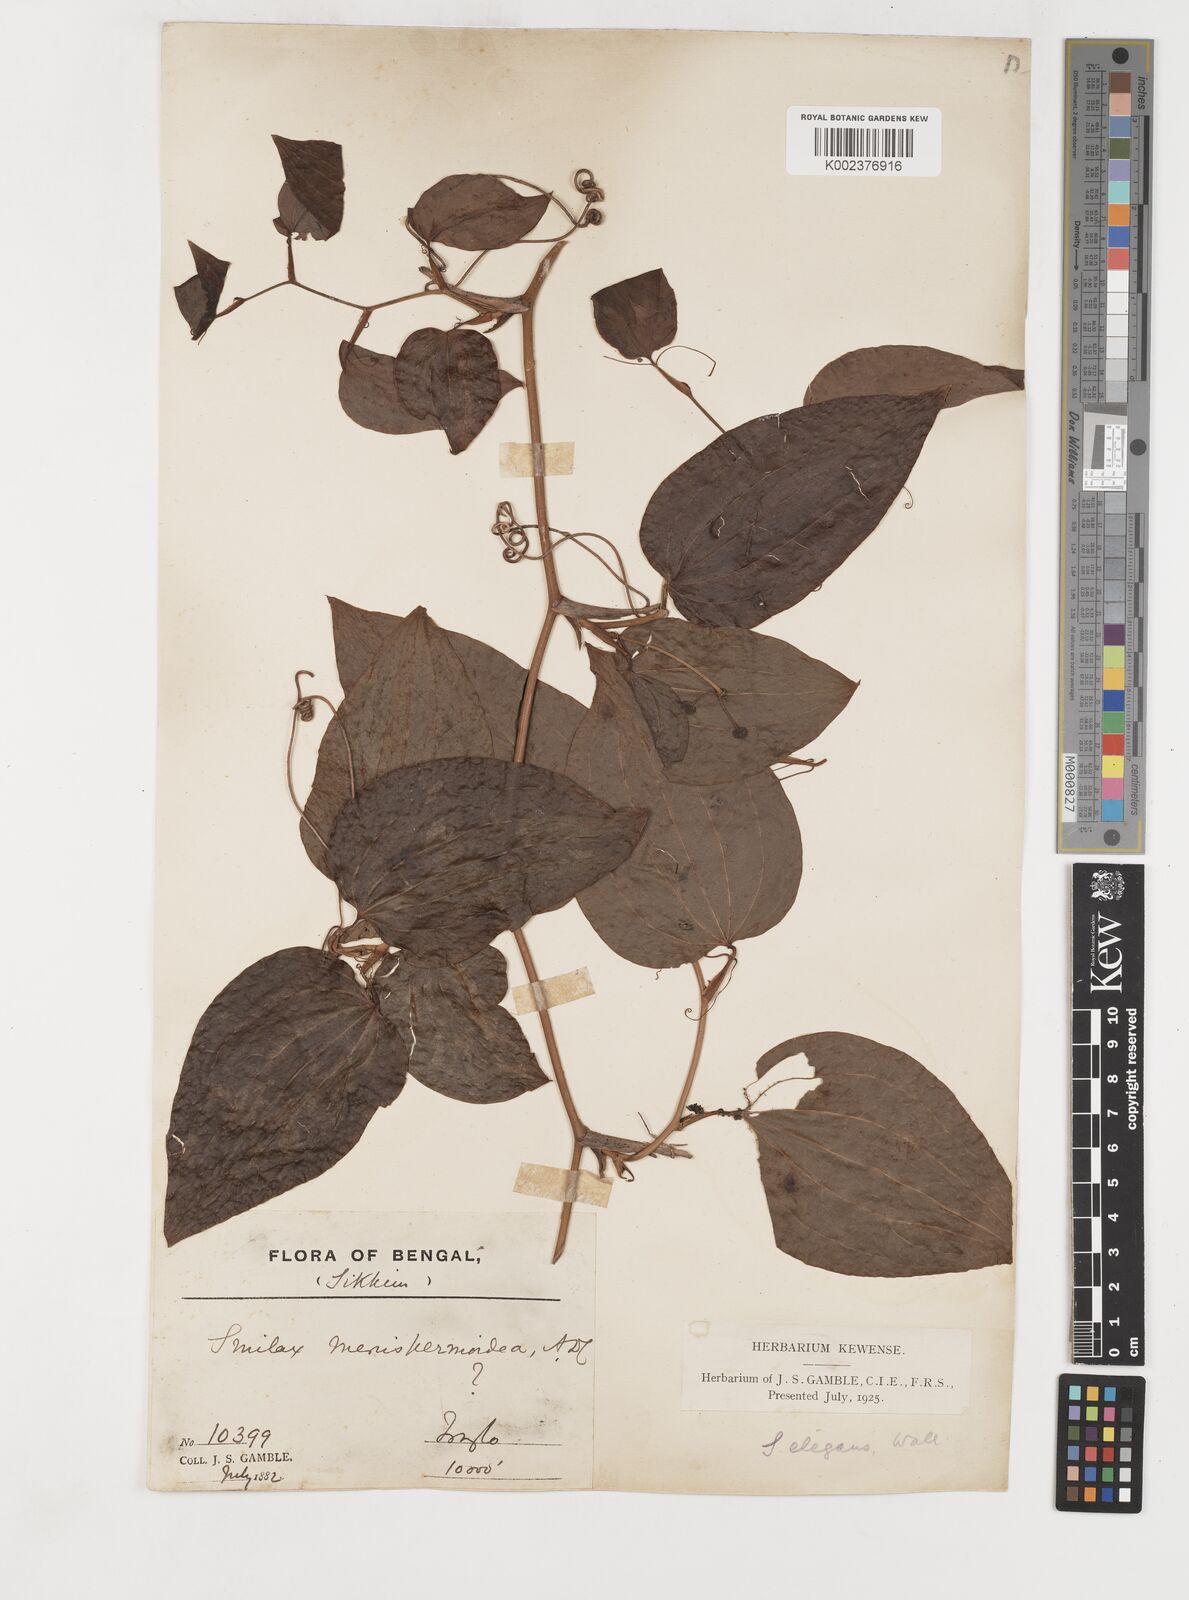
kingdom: Plantae
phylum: Tracheophyta
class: Liliopsida
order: Liliales
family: Smilacaceae
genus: Smilax
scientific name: Smilax menispermoidea
